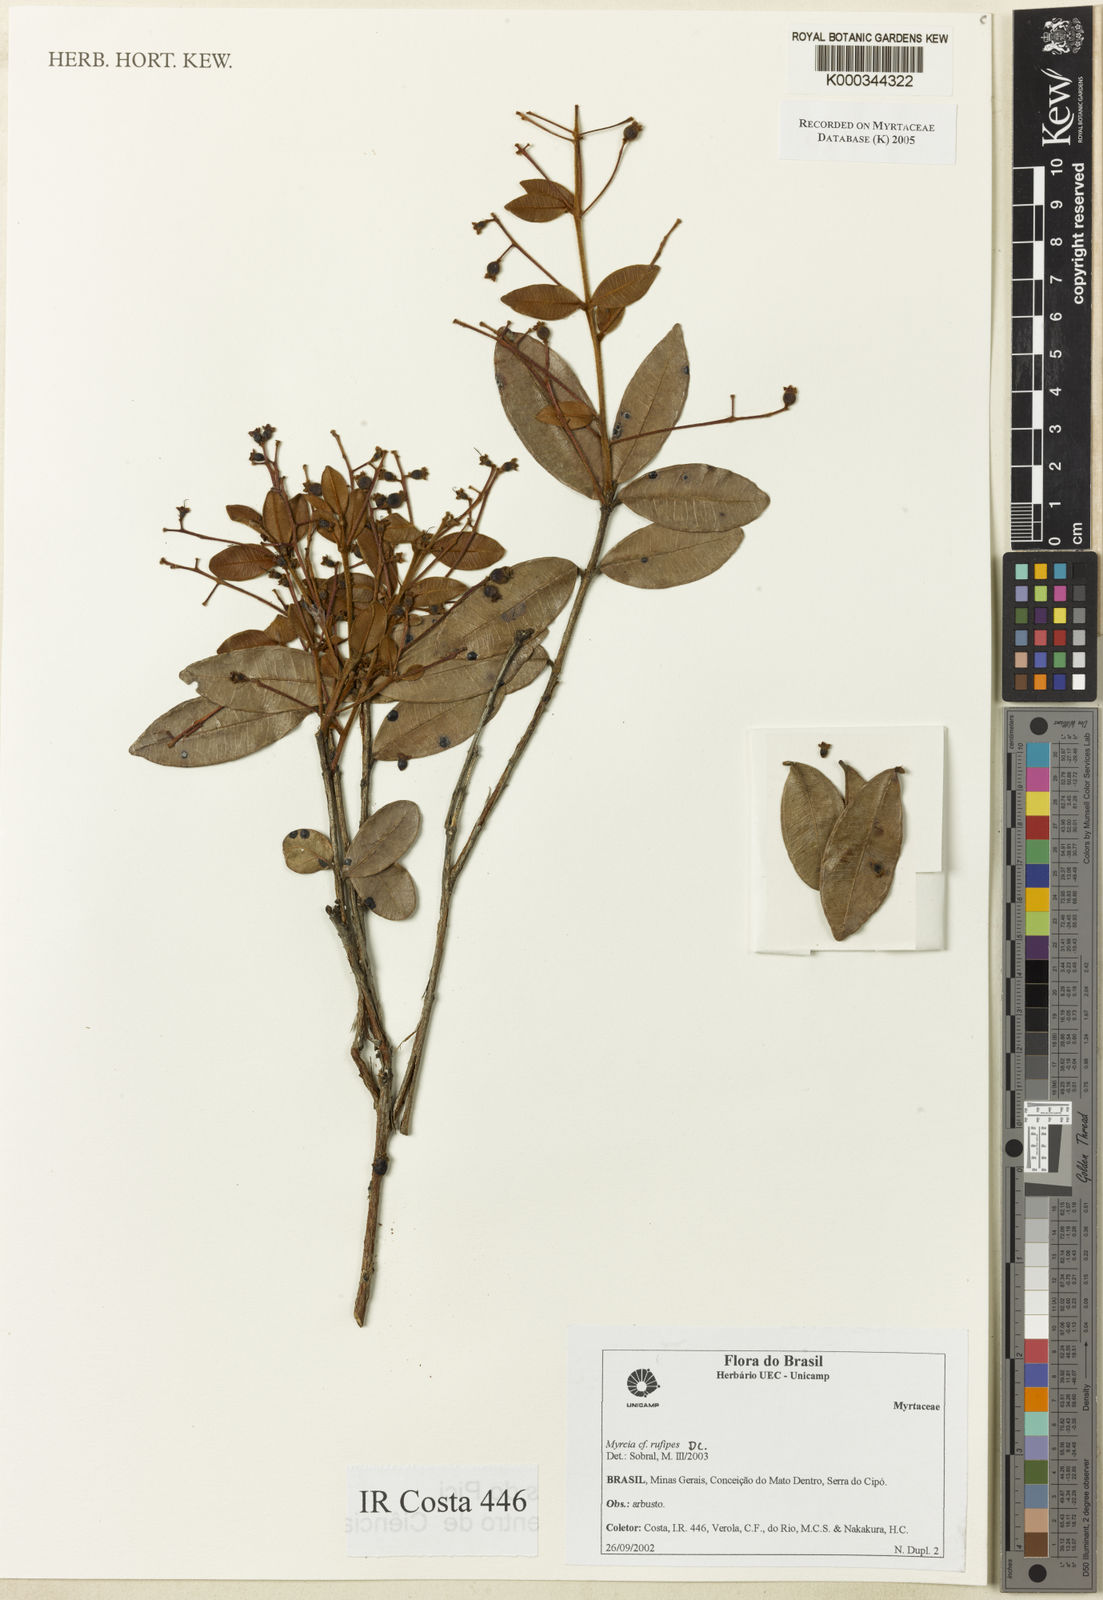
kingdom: Plantae
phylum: Tracheophyta
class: Magnoliopsida
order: Myrtales
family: Myrtaceae
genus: Myrcia
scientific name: Myrcia rufipes
